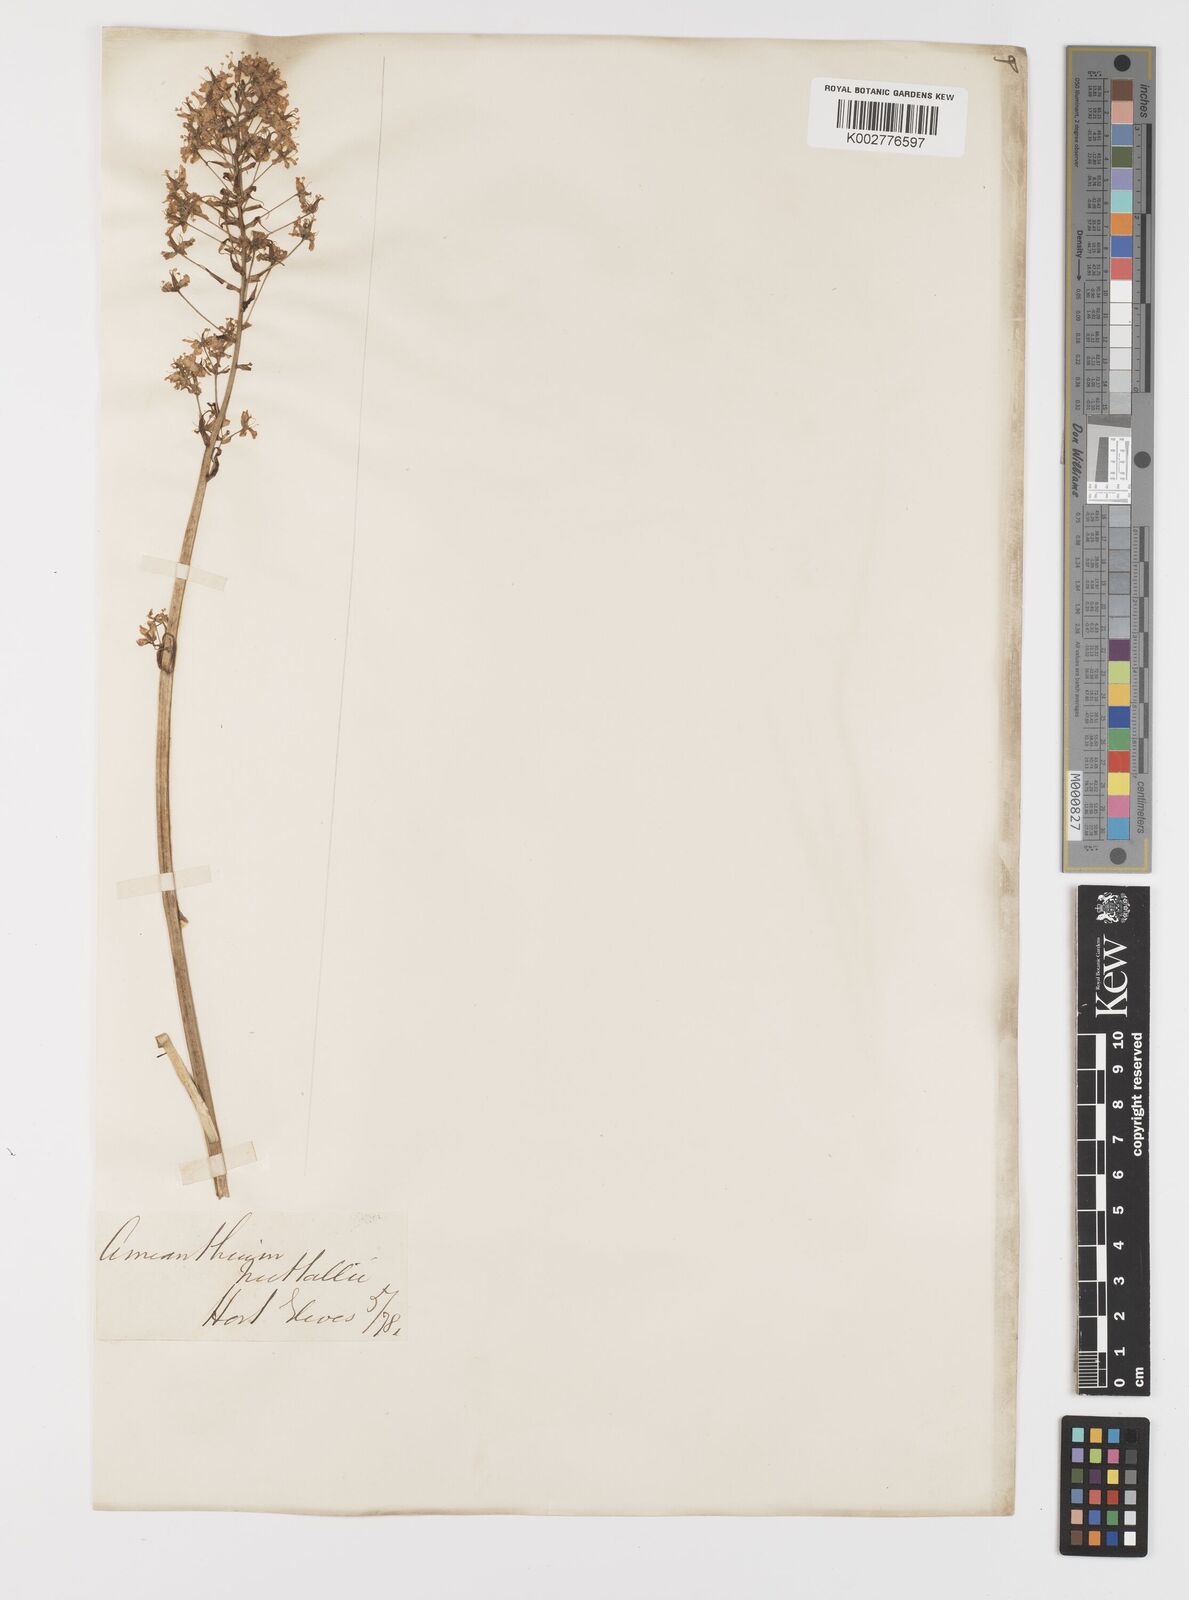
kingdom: Plantae
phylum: Tracheophyta
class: Liliopsida
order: Liliales
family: Melanthiaceae
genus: Toxicoscordion
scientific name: Toxicoscordion nuttallii
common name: Poison sego
